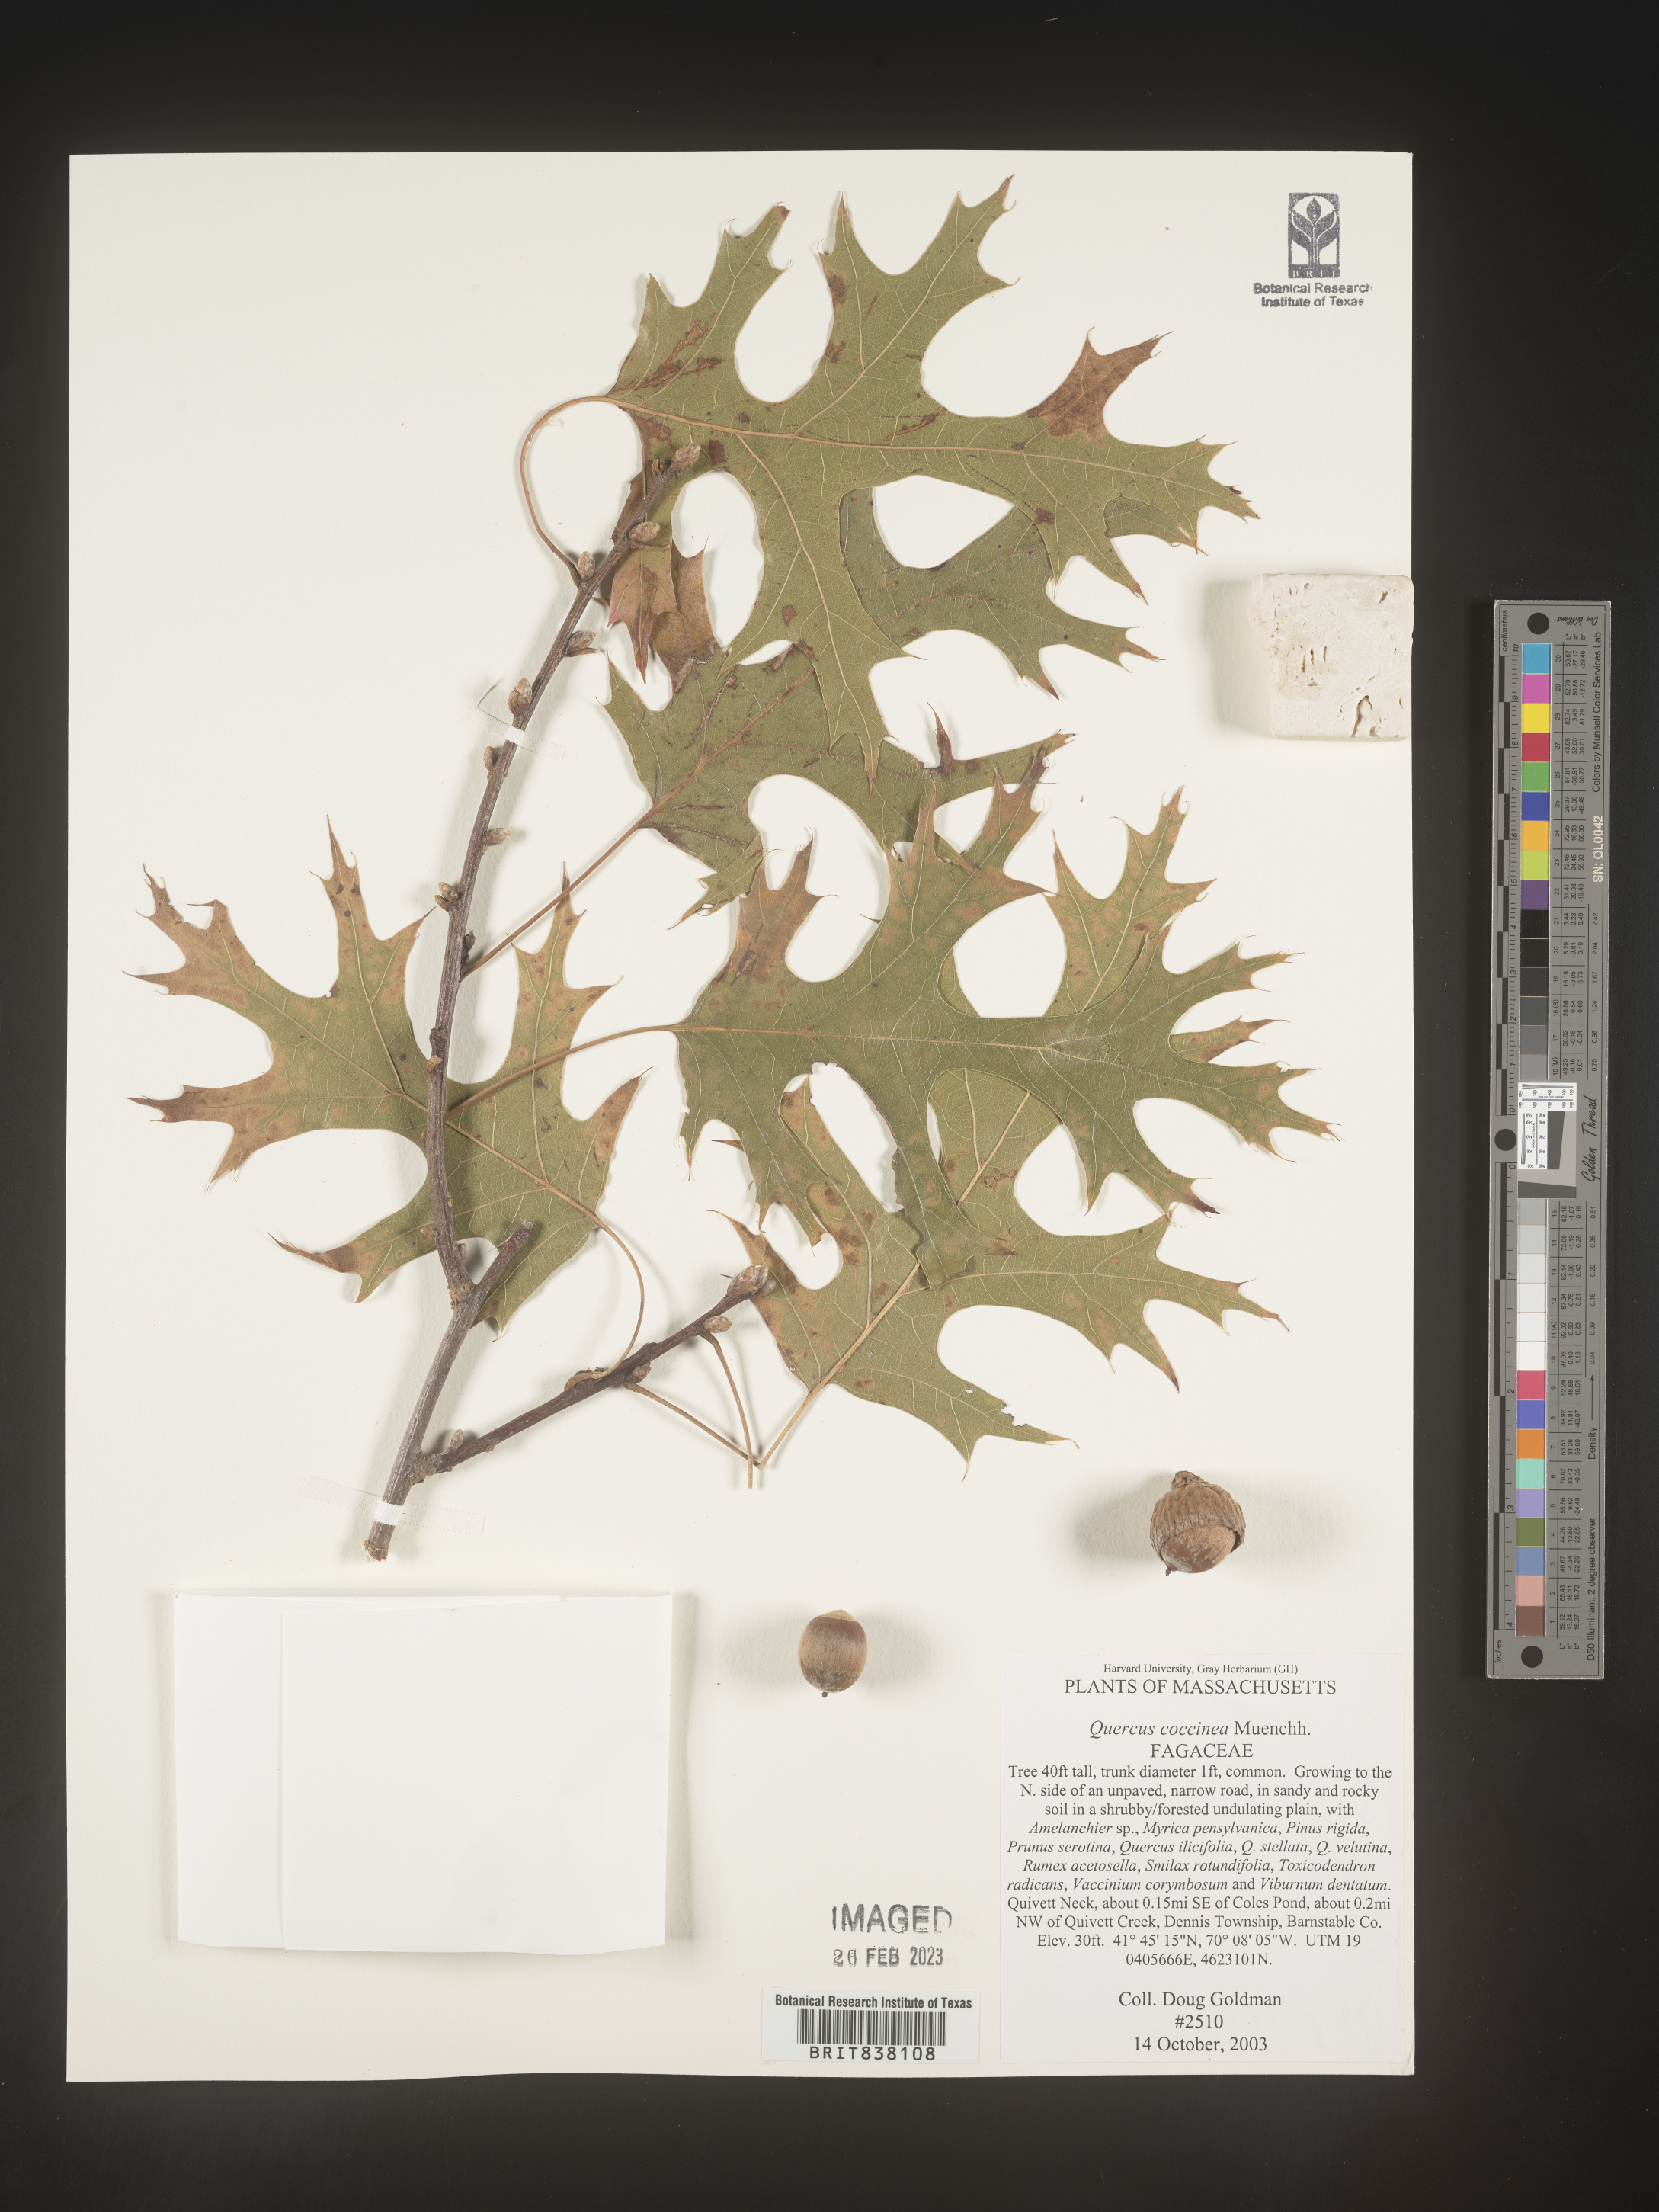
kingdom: Plantae
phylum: Tracheophyta
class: Magnoliopsida
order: Fagales
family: Fagaceae
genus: Quercus
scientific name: Quercus coccinea
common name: Scarlet oak
